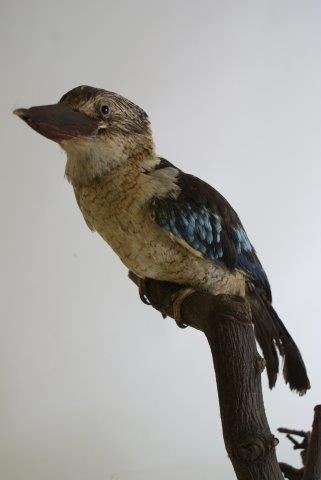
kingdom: Animalia
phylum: Chordata
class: Aves
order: Coraciiformes
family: Alcedinidae
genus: Dacelo
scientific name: Dacelo leachii
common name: Blue-winged kookaburra
